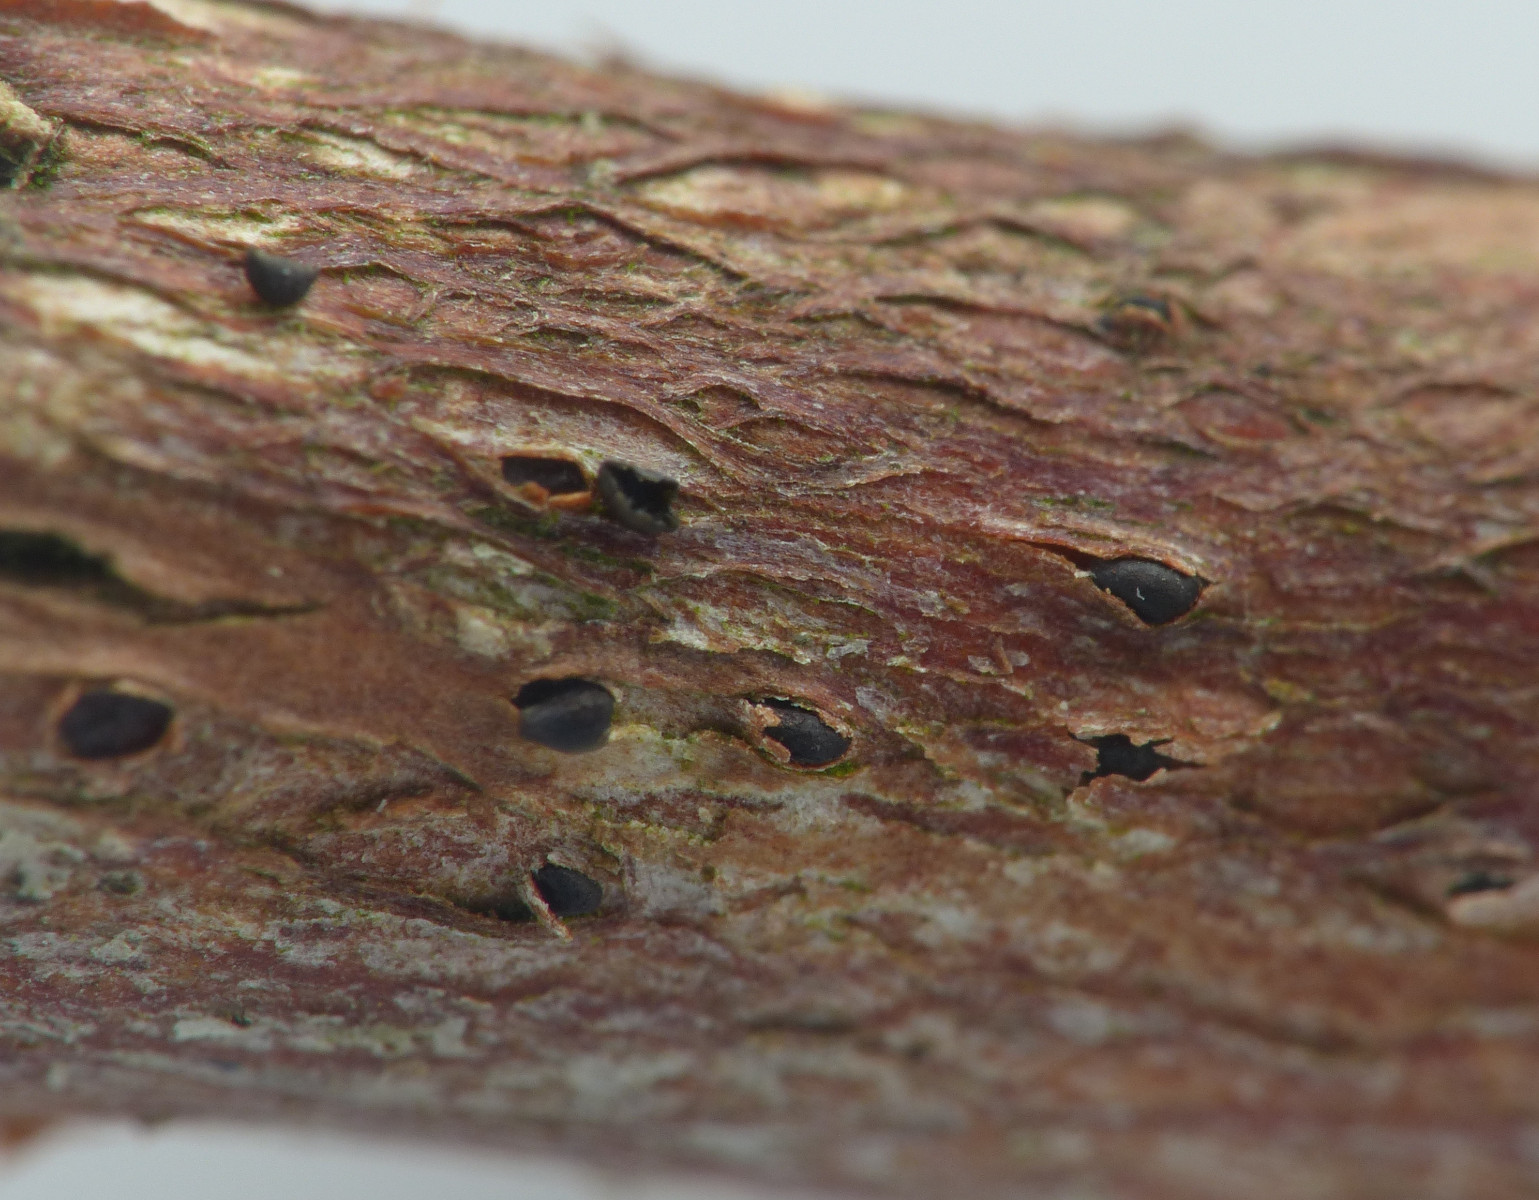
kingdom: Fungi
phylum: Ascomycota
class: Leotiomycetes
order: Helotiales
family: Godroniaceae
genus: Godronia
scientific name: Godronia callunigera
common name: hedelyng-urneskive
